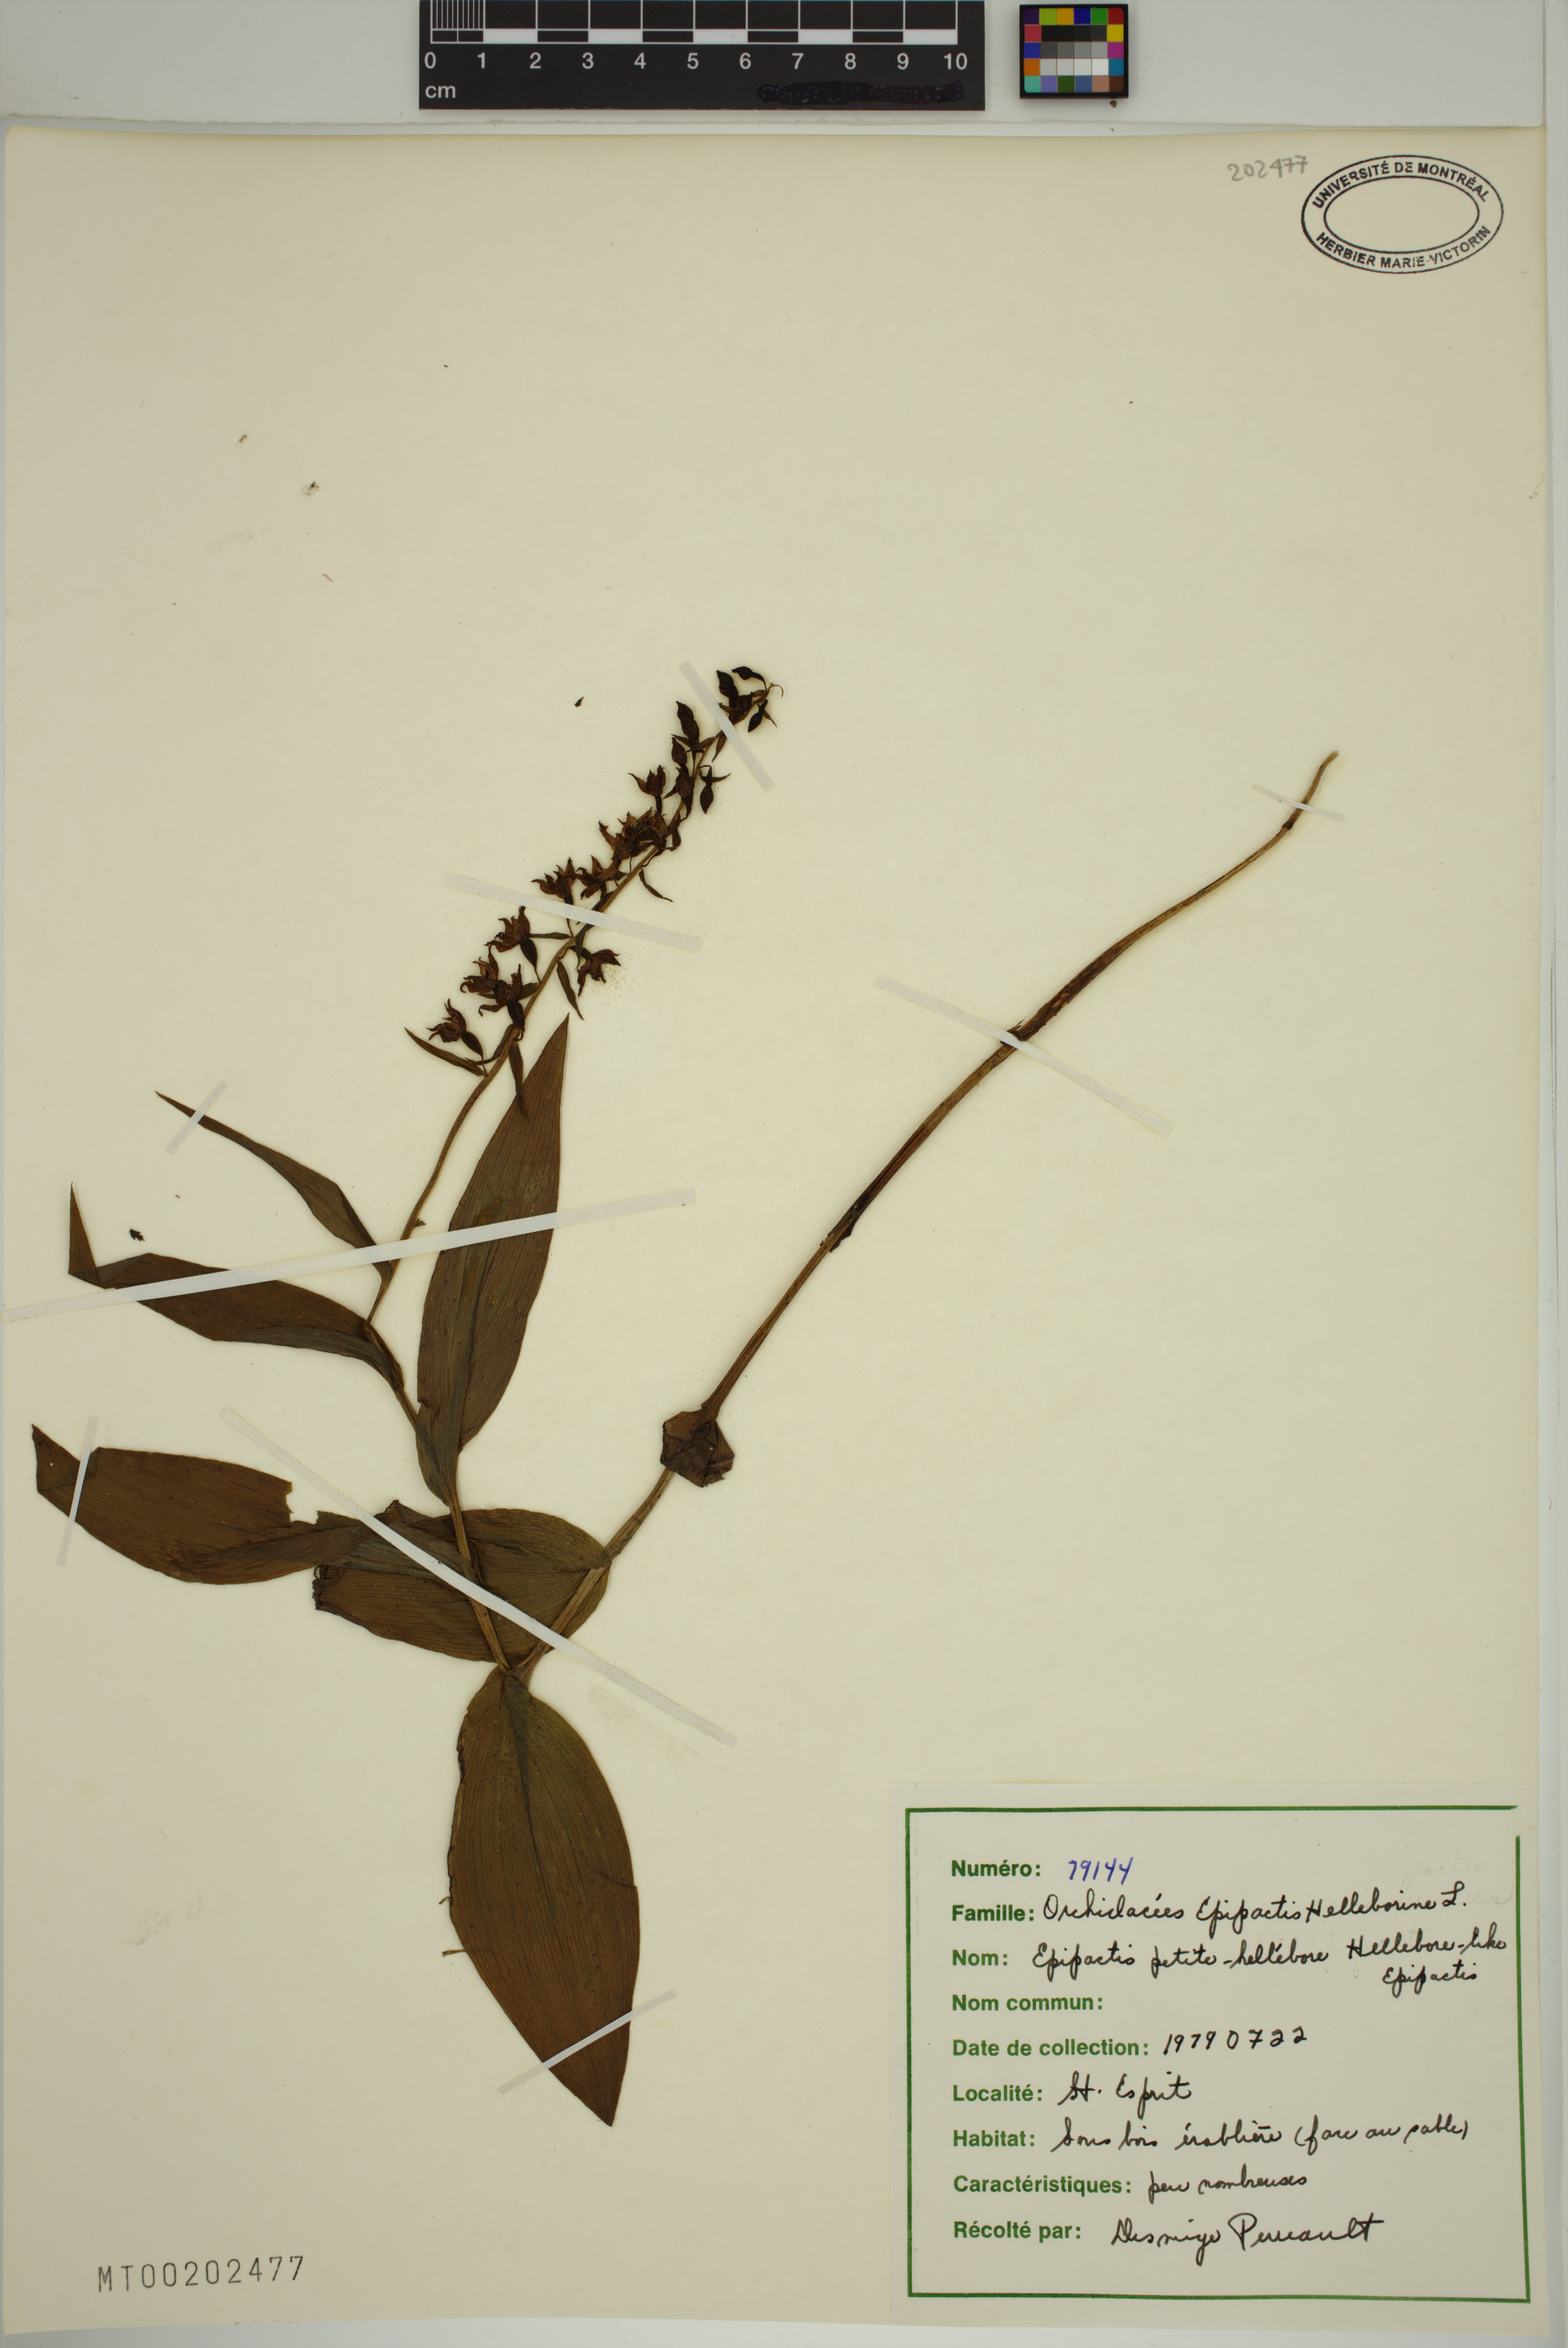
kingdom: Plantae
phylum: Tracheophyta
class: Liliopsida
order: Asparagales
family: Orchidaceae
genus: Epipactis
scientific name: Epipactis helleborine
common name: Broad-leaved helleborine
